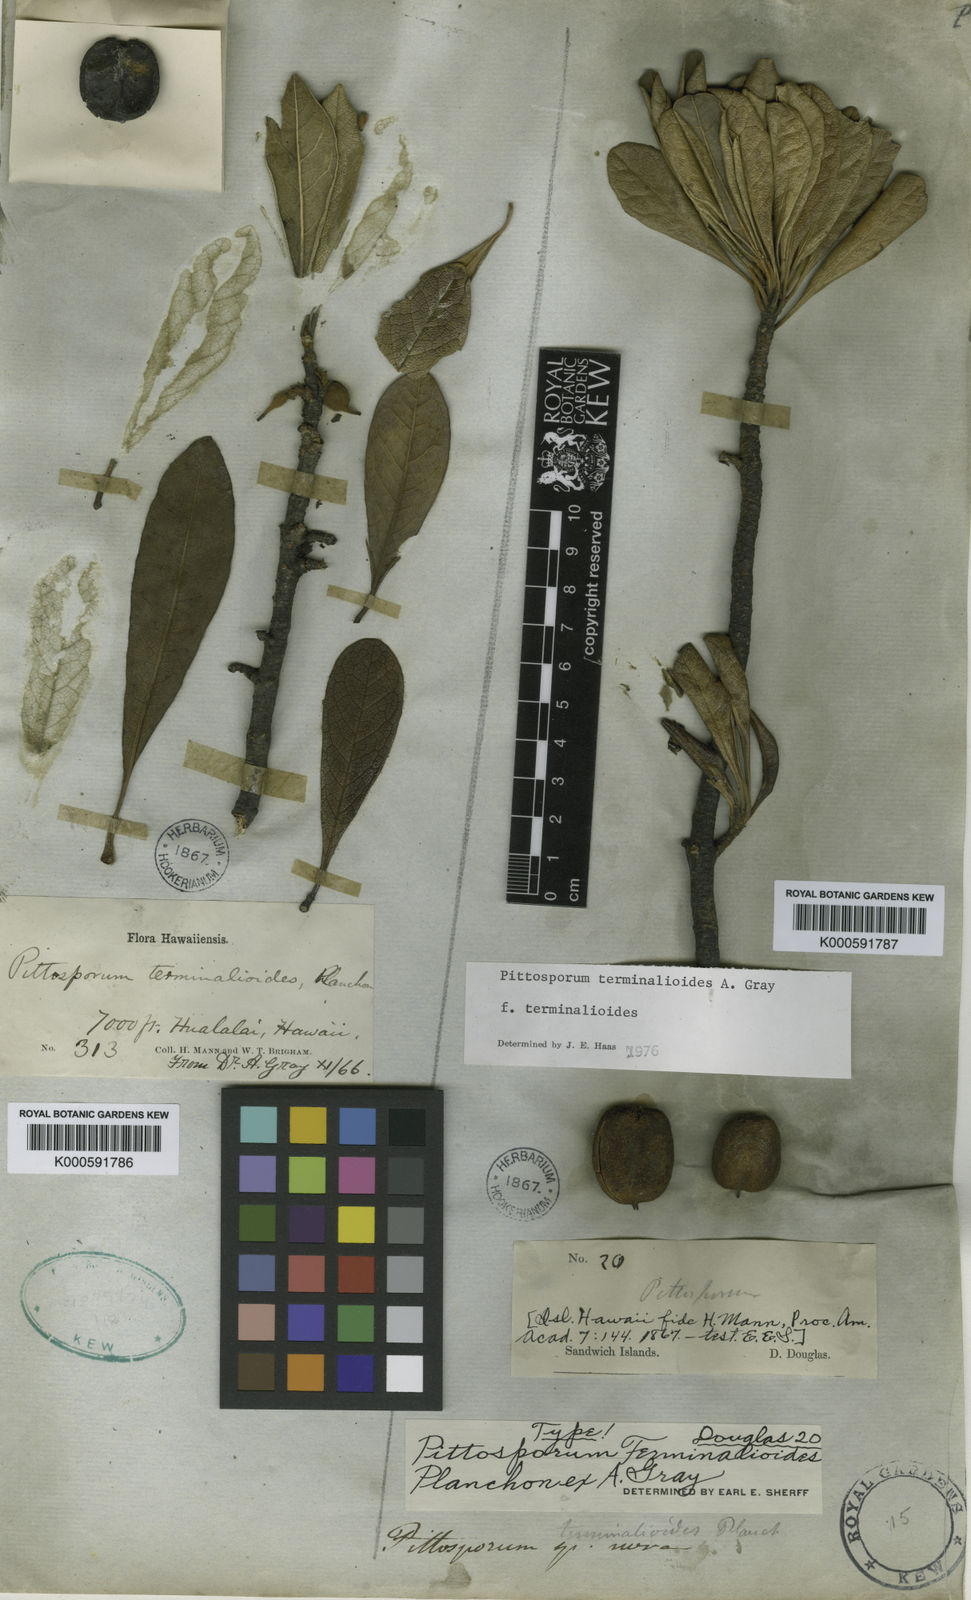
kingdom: Plantae
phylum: Tracheophyta
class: Magnoliopsida
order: Apiales
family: Pittosporaceae
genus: Pittosporum
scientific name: Pittosporum terminalioides
